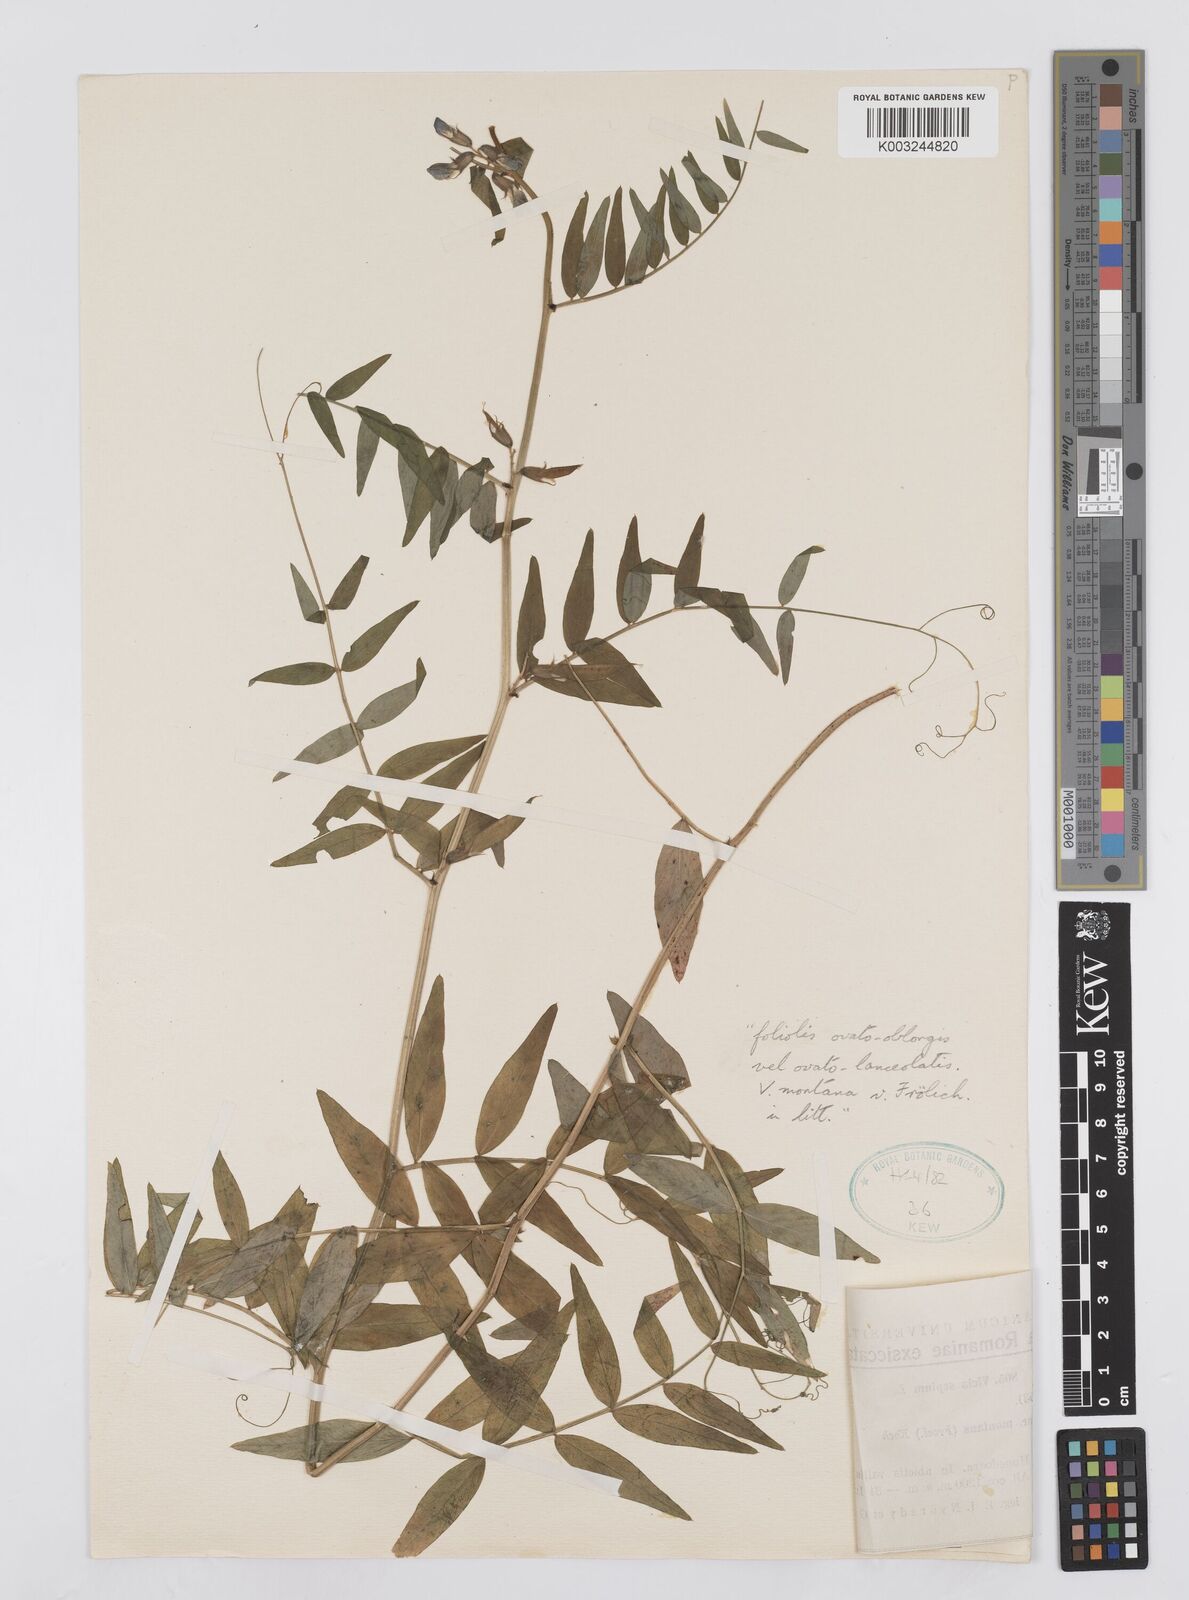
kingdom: Plantae
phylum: Tracheophyta
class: Magnoliopsida
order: Fabales
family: Fabaceae
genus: Vicia
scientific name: Vicia sepium
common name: Bush vetch
